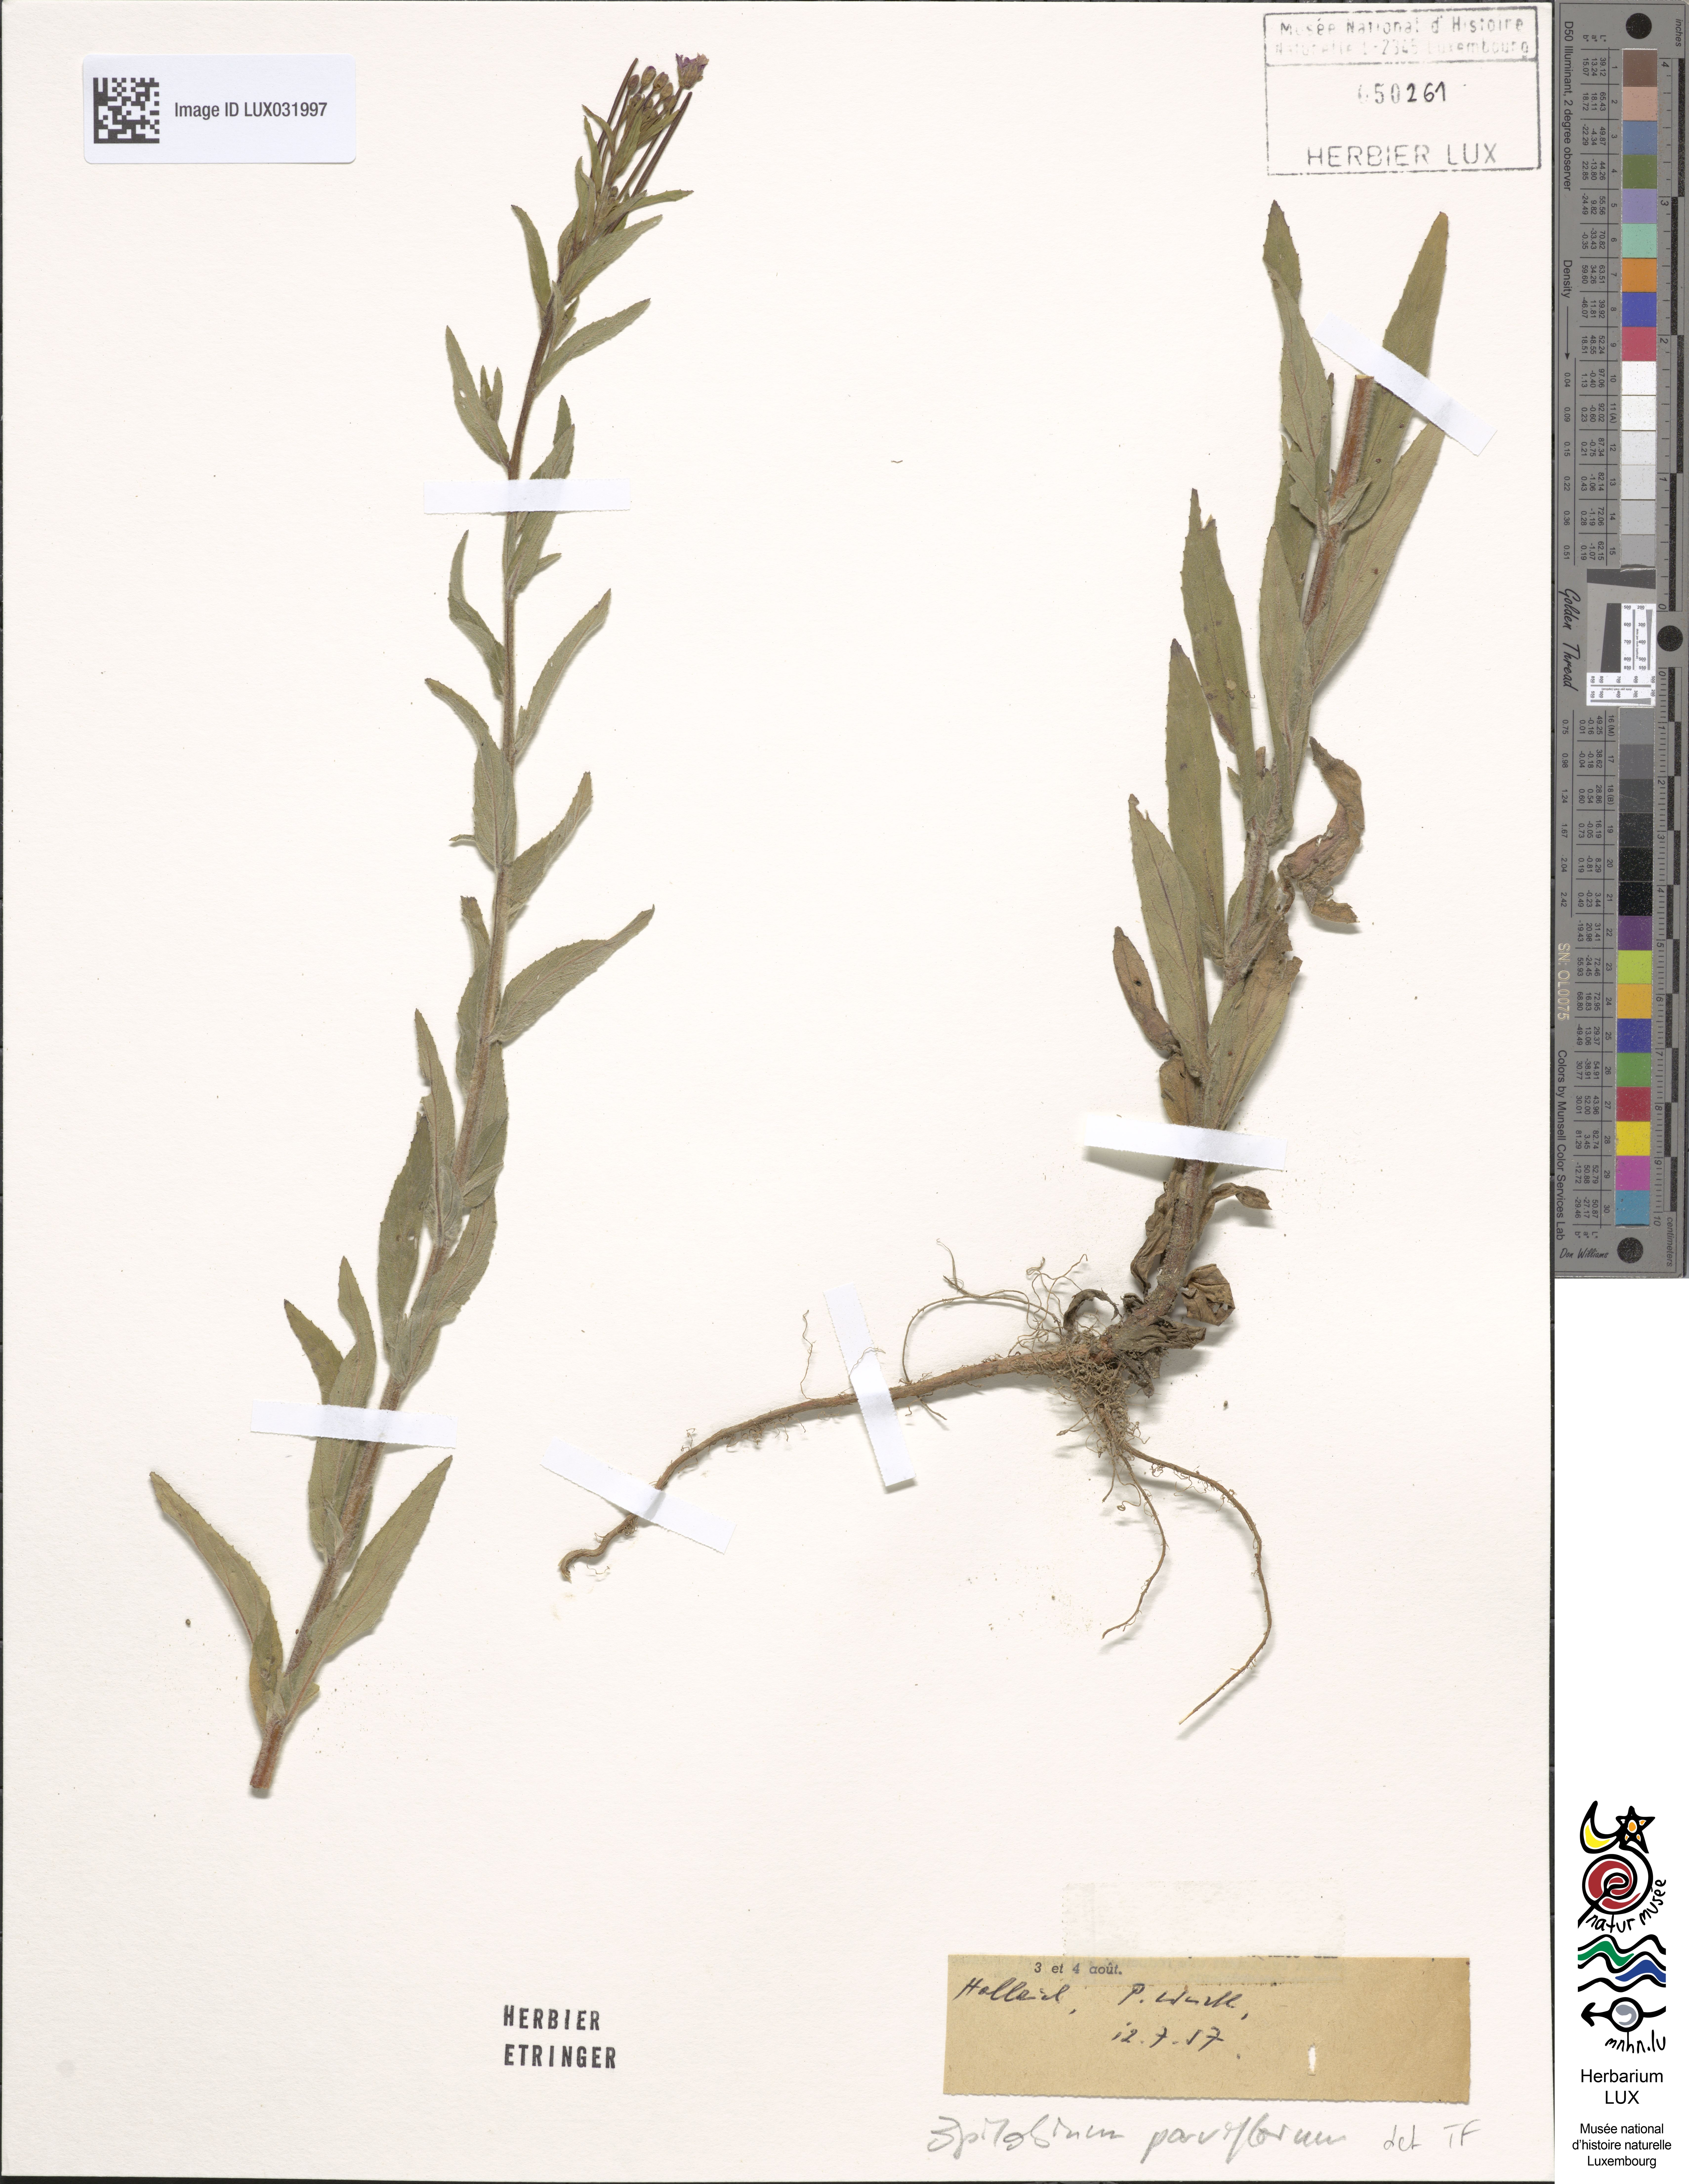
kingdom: Plantae
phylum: Tracheophyta
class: Magnoliopsida
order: Myrtales
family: Onagraceae
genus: Epilobium
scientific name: Epilobium parviflorum
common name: Hoary willowherb
